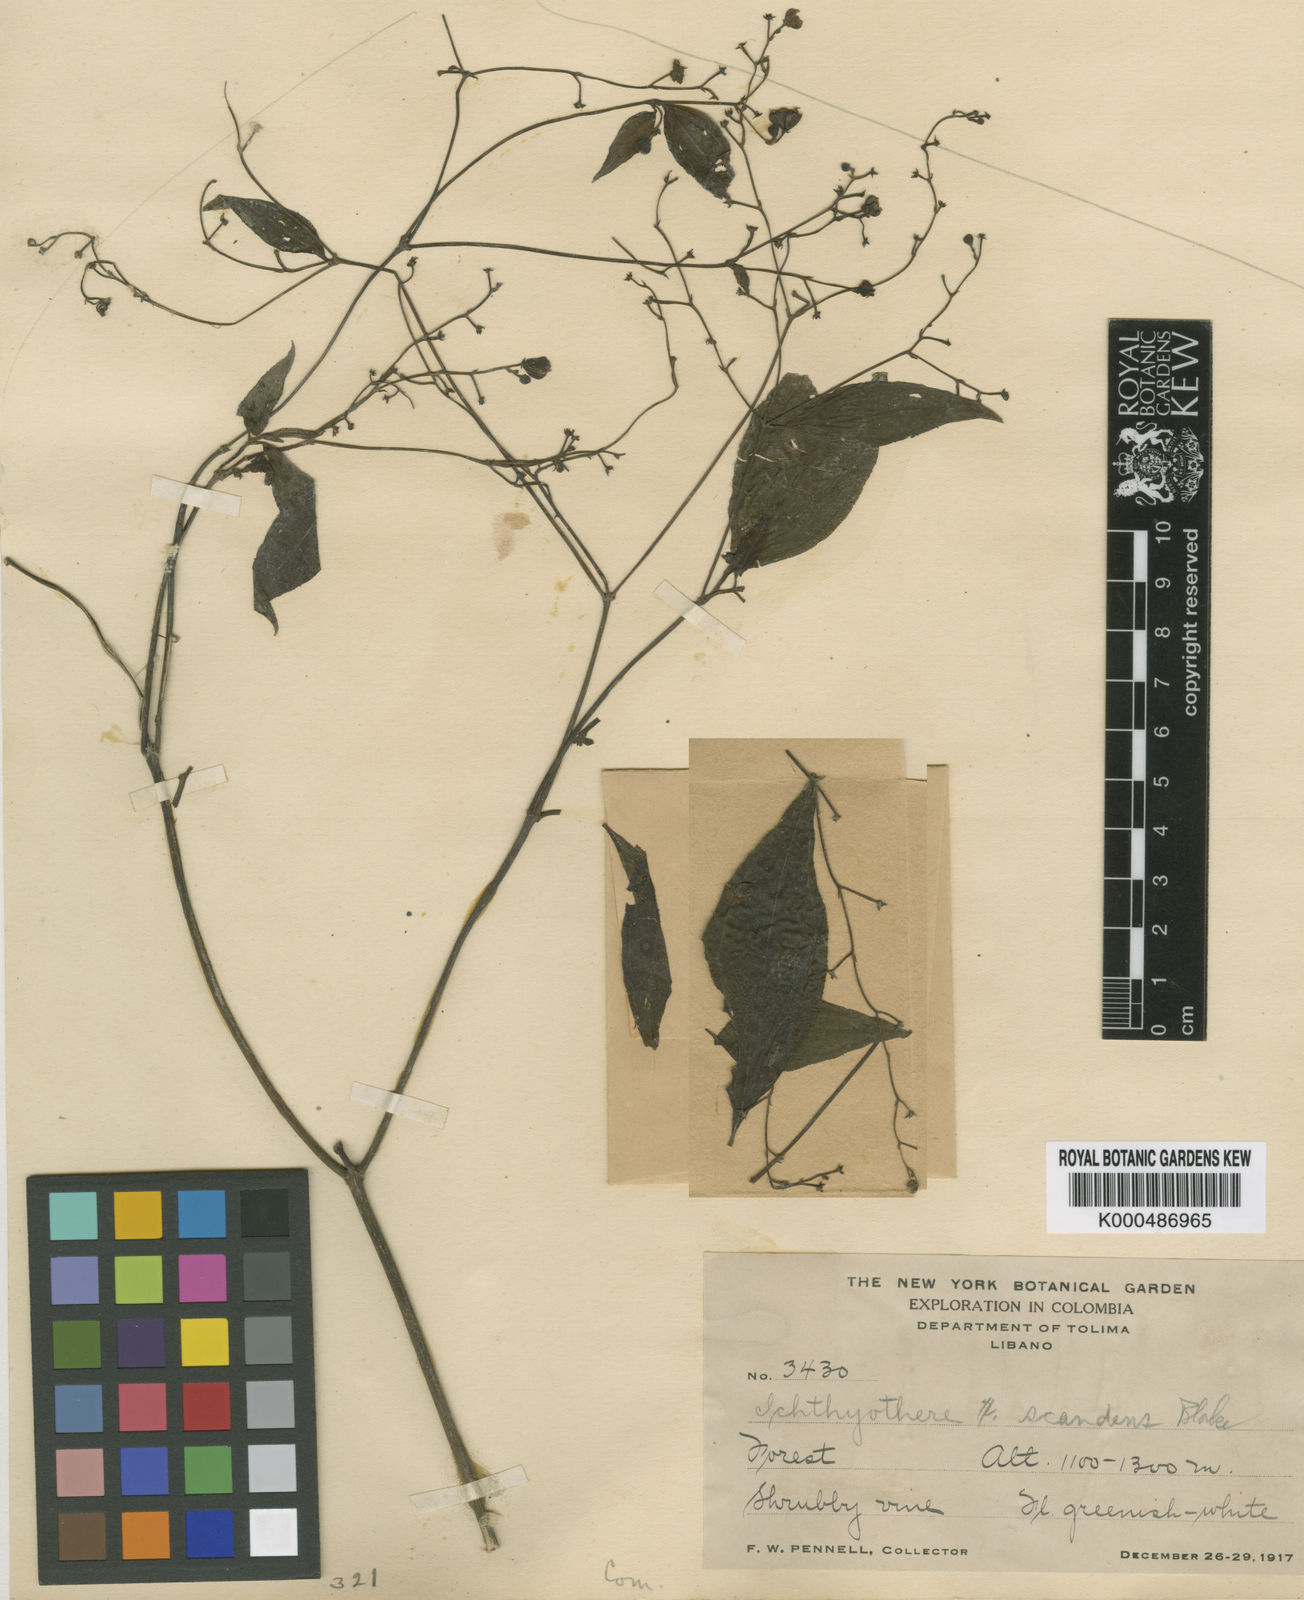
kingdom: Plantae
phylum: Tracheophyta
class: Magnoliopsida
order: Asterales
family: Asteraceae
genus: Ichthyothere
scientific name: Ichthyothere scandens
